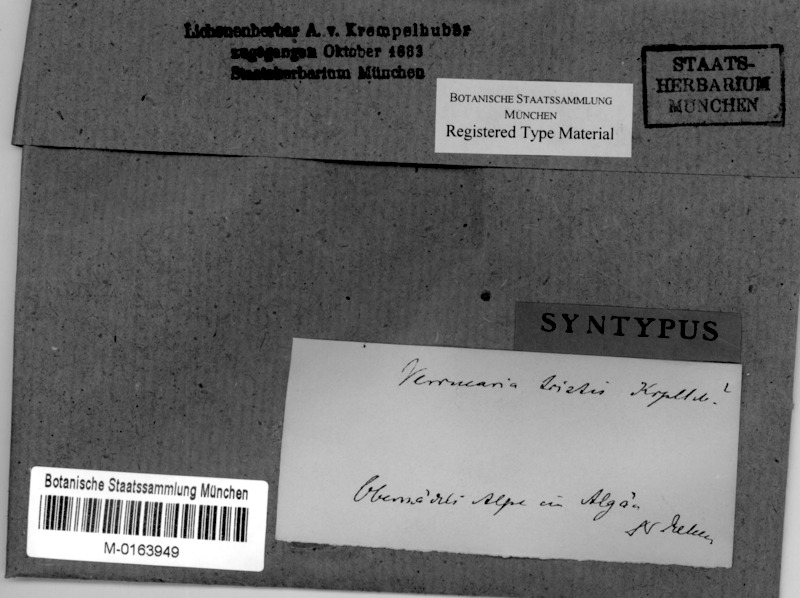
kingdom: Fungi
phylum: Ascomycota
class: Eurotiomycetes
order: Verrucariales
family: Verrucariaceae
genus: Verrucaria
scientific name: Verrucaria Lithocia tristis
